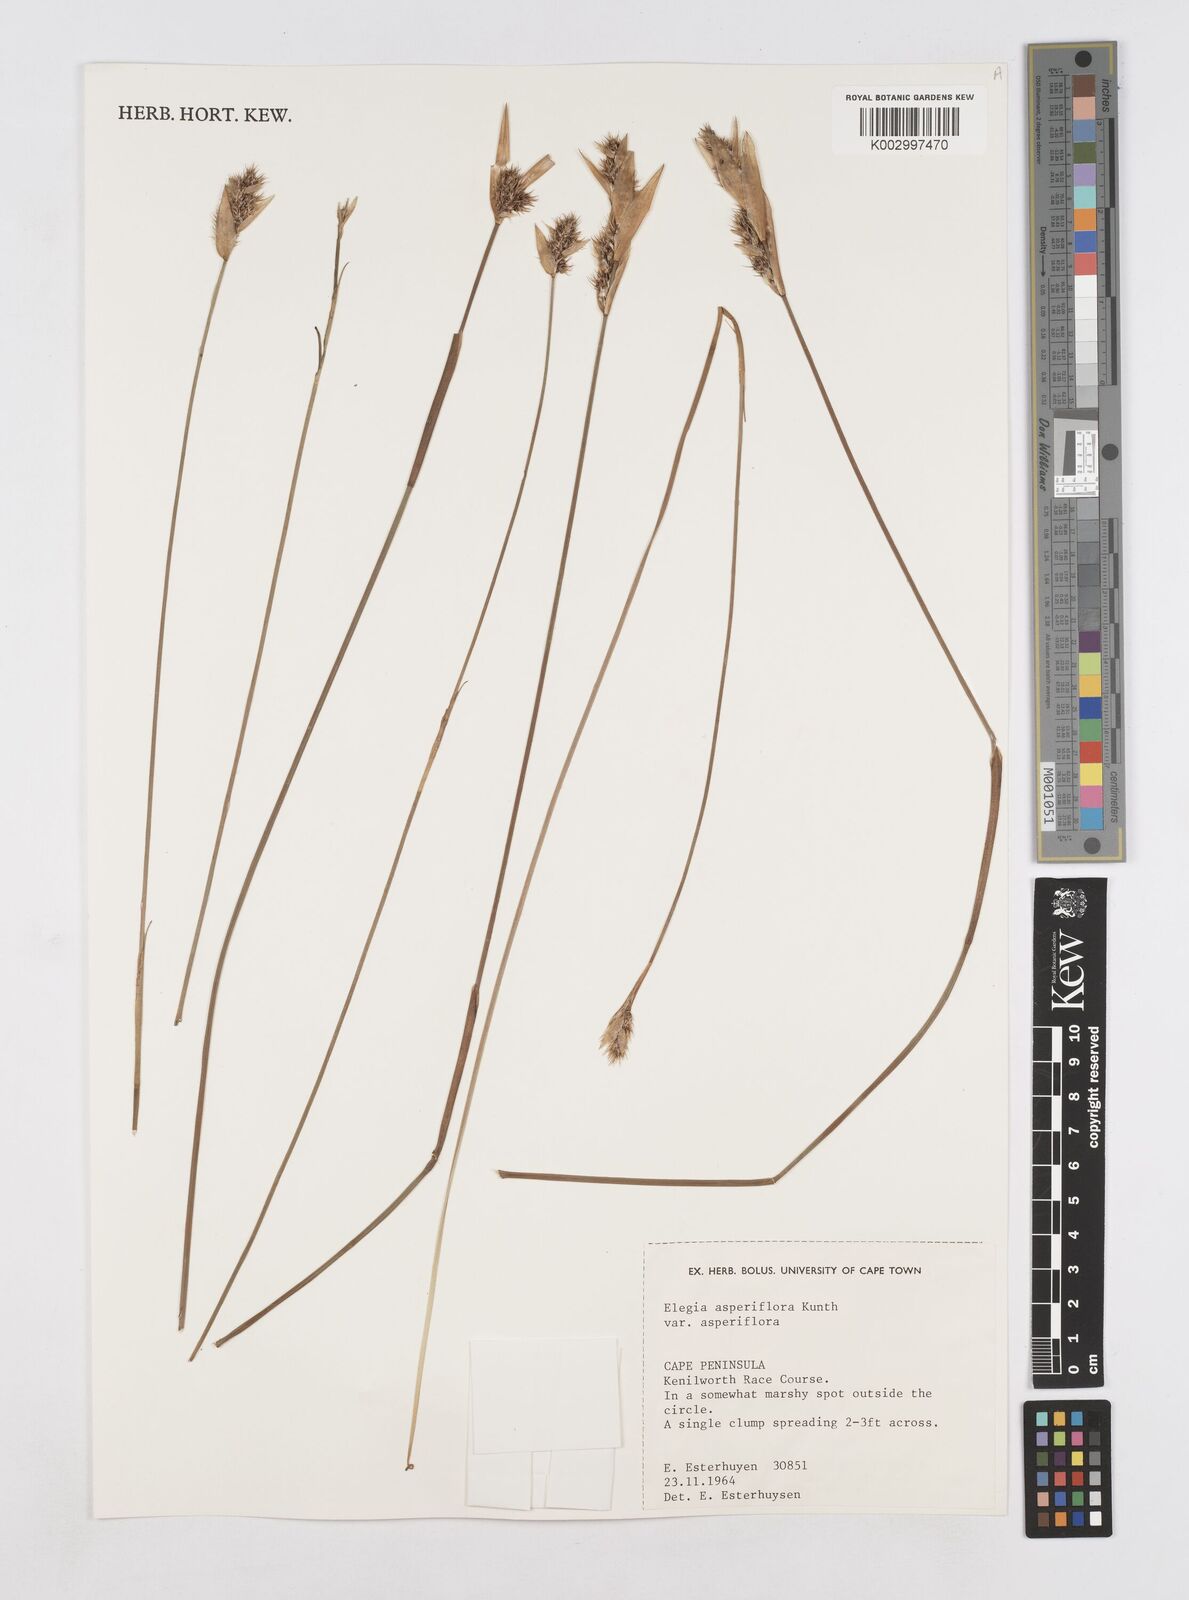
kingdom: Plantae
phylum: Tracheophyta
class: Liliopsida
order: Poales
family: Restionaceae
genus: Elegia
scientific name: Elegia asperiflora
